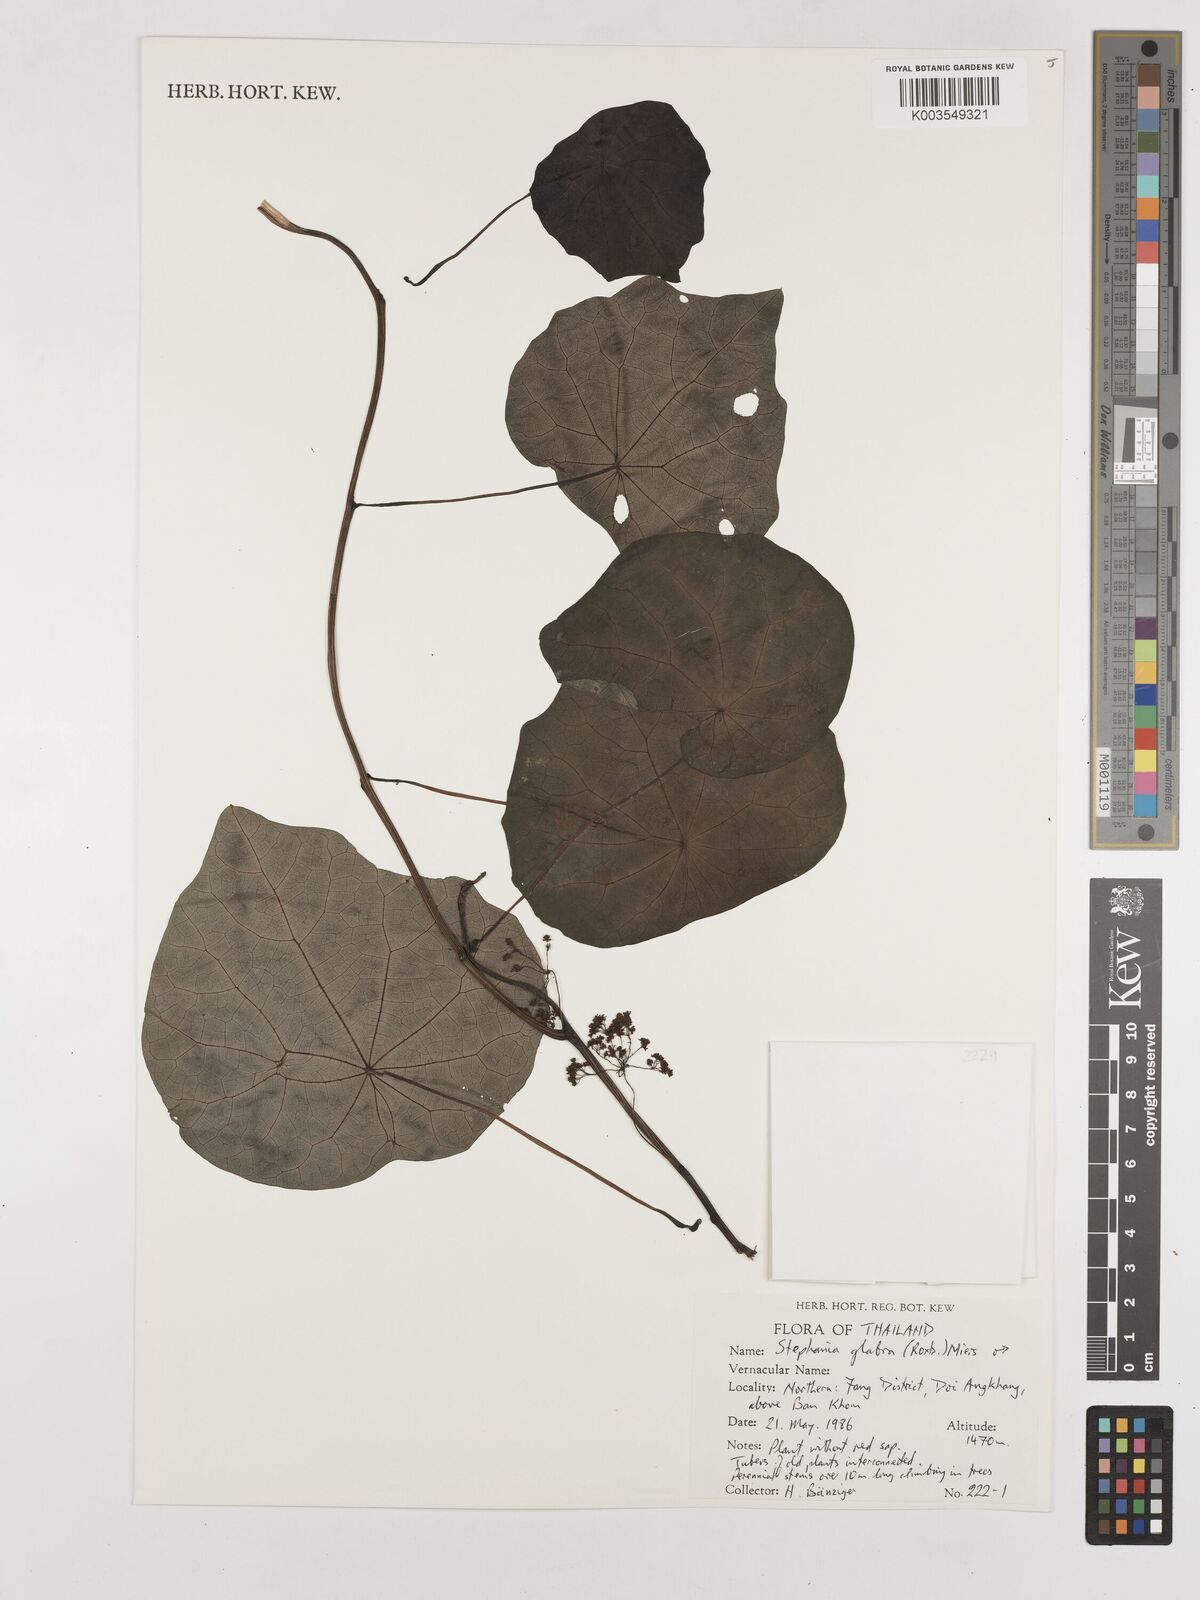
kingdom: Plantae
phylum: Tracheophyta
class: Magnoliopsida
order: Ranunculales
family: Menispermaceae
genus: Stephania
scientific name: Stephania rotunda
